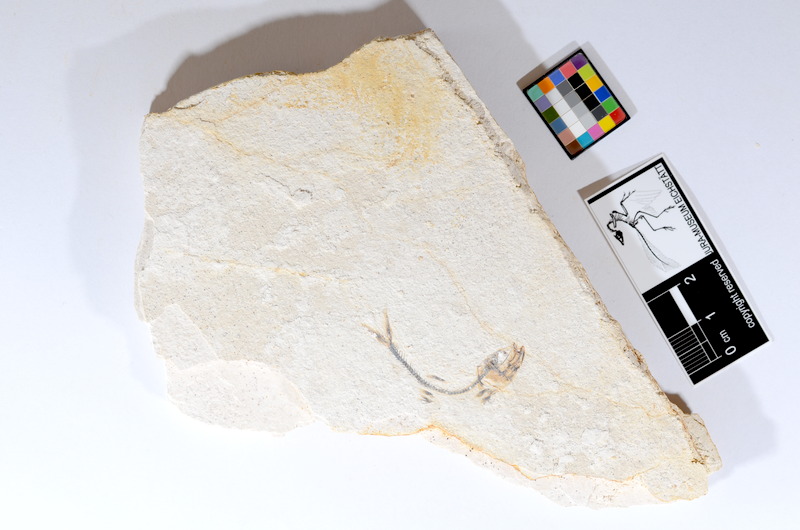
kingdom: Animalia
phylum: Chordata
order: Salmoniformes
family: Orthogonikleithridae
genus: Orthogonikleithrus
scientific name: Orthogonikleithrus hoelli
